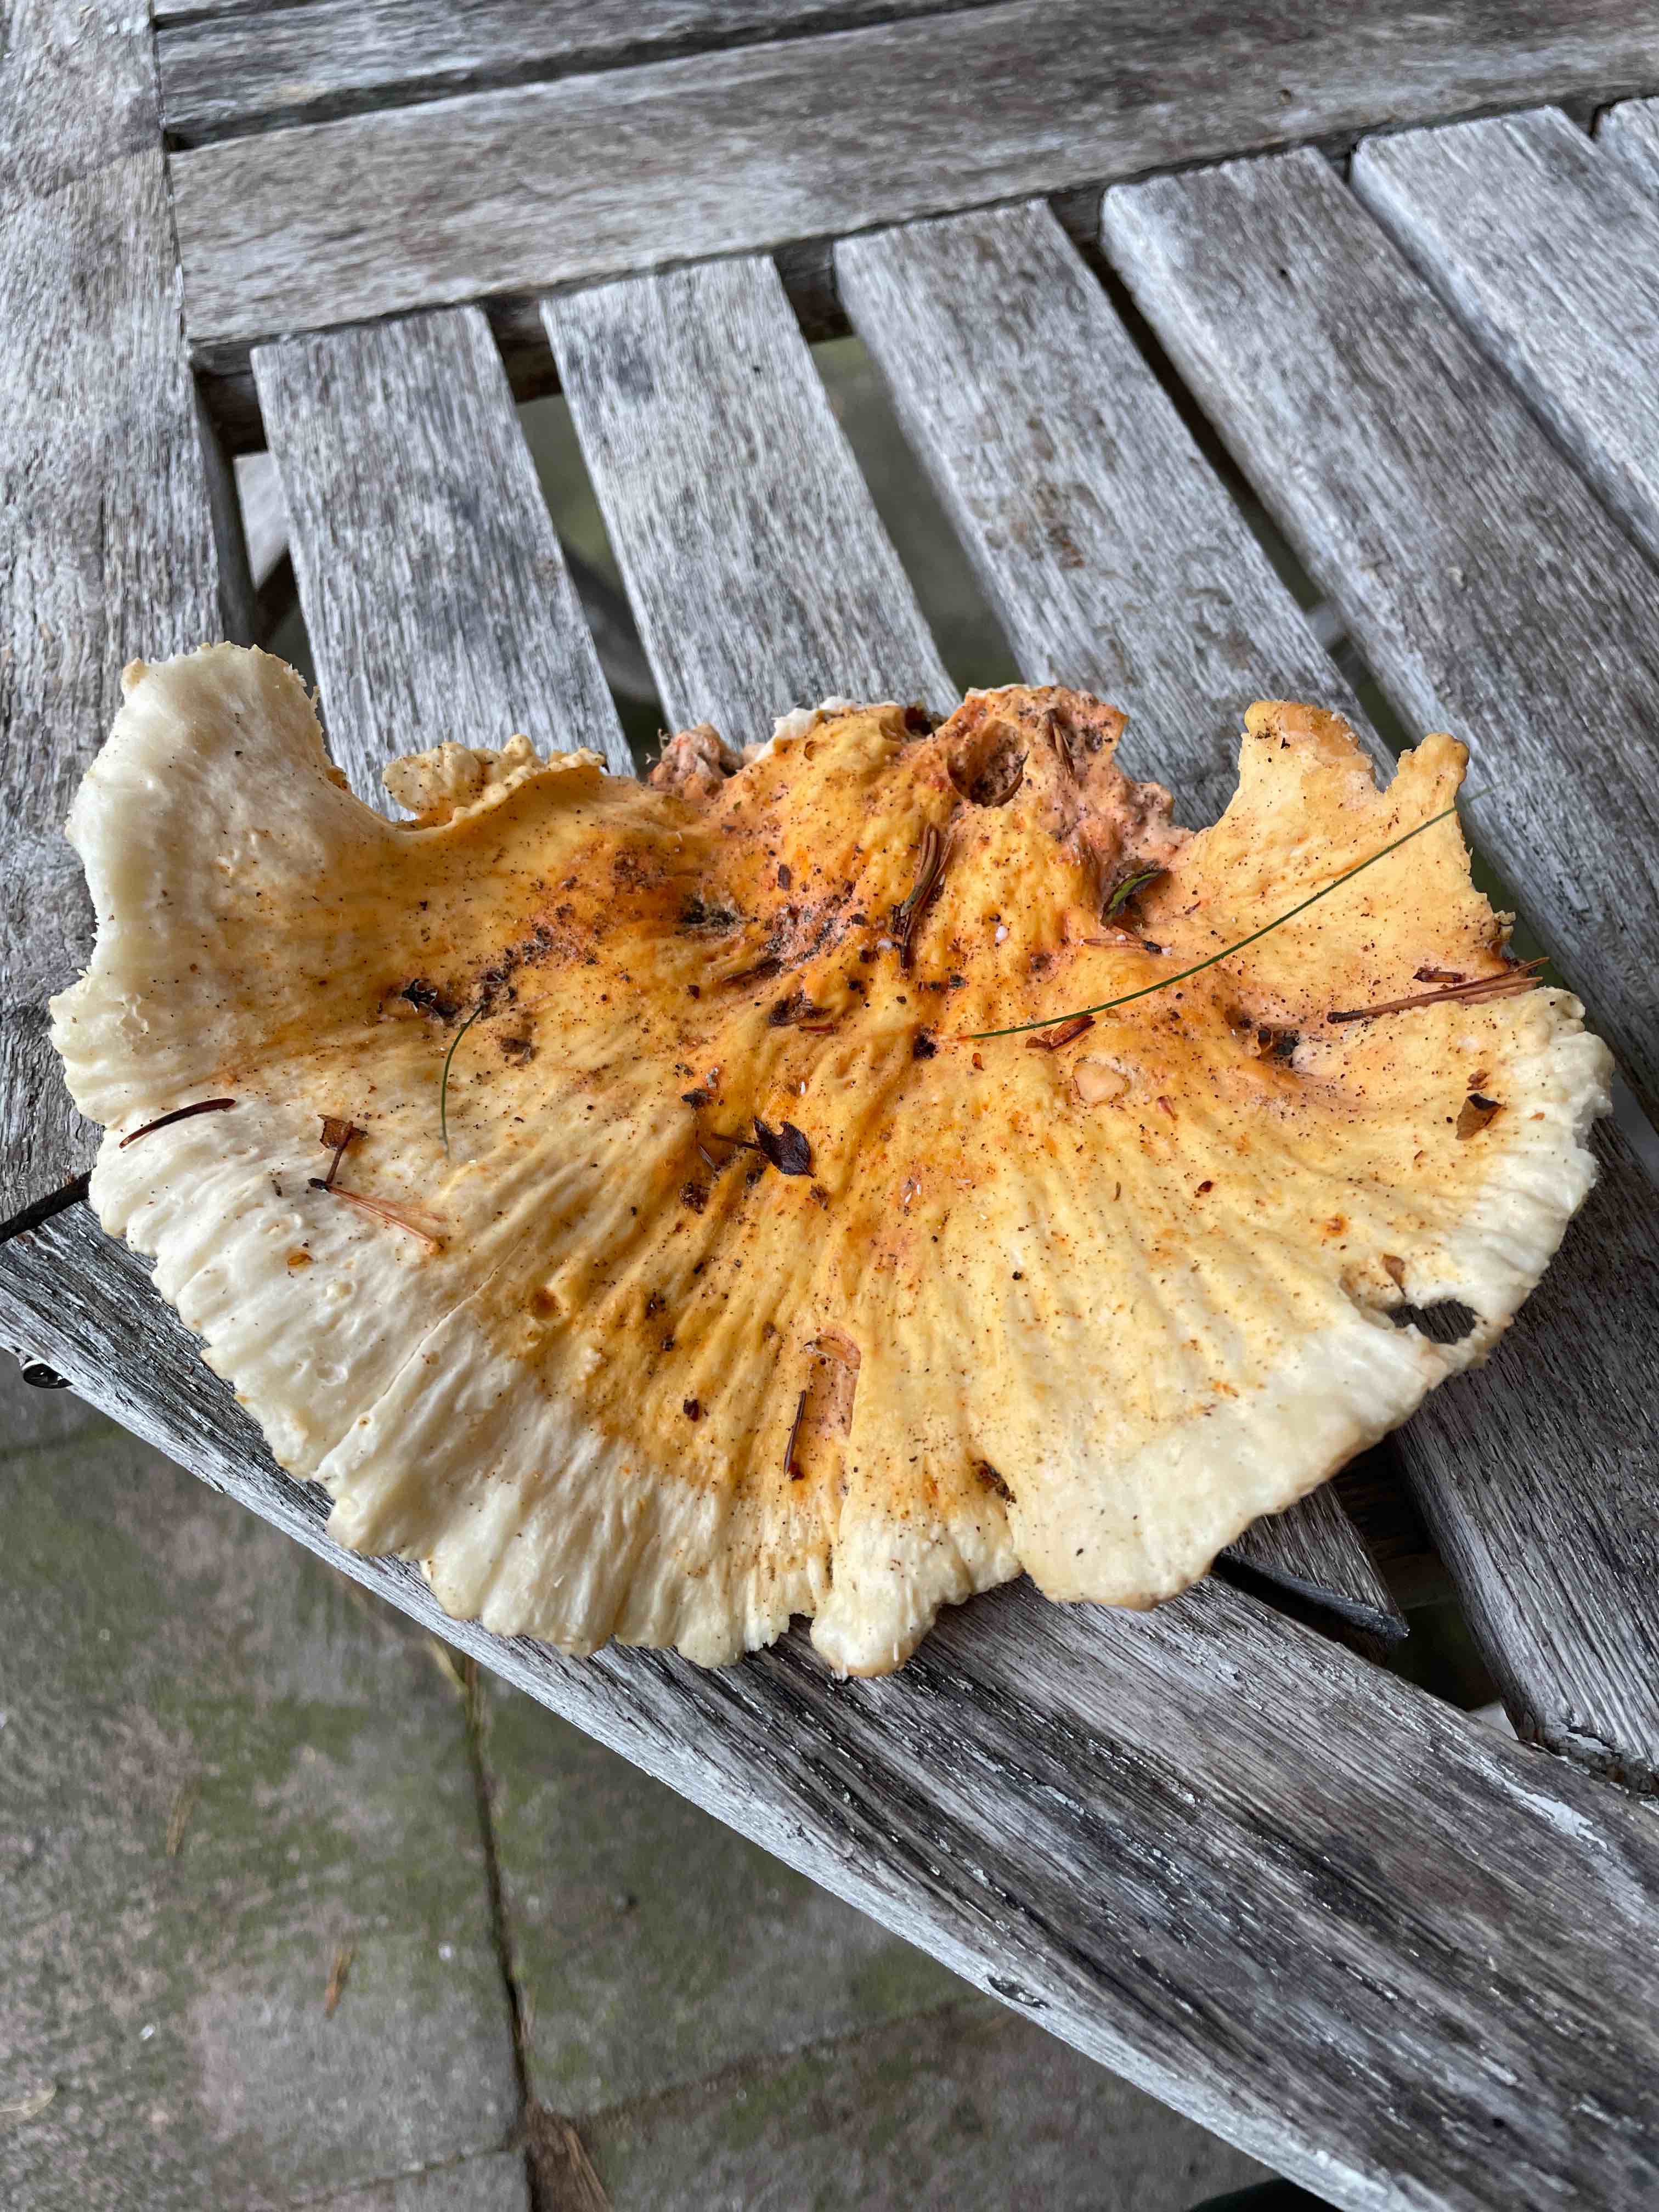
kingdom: Fungi
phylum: Basidiomycota
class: Agaricomycetes
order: Polyporales
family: Laetiporaceae
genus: Laetiporus
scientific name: Laetiporus sulphureus
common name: svovlporesvamp
